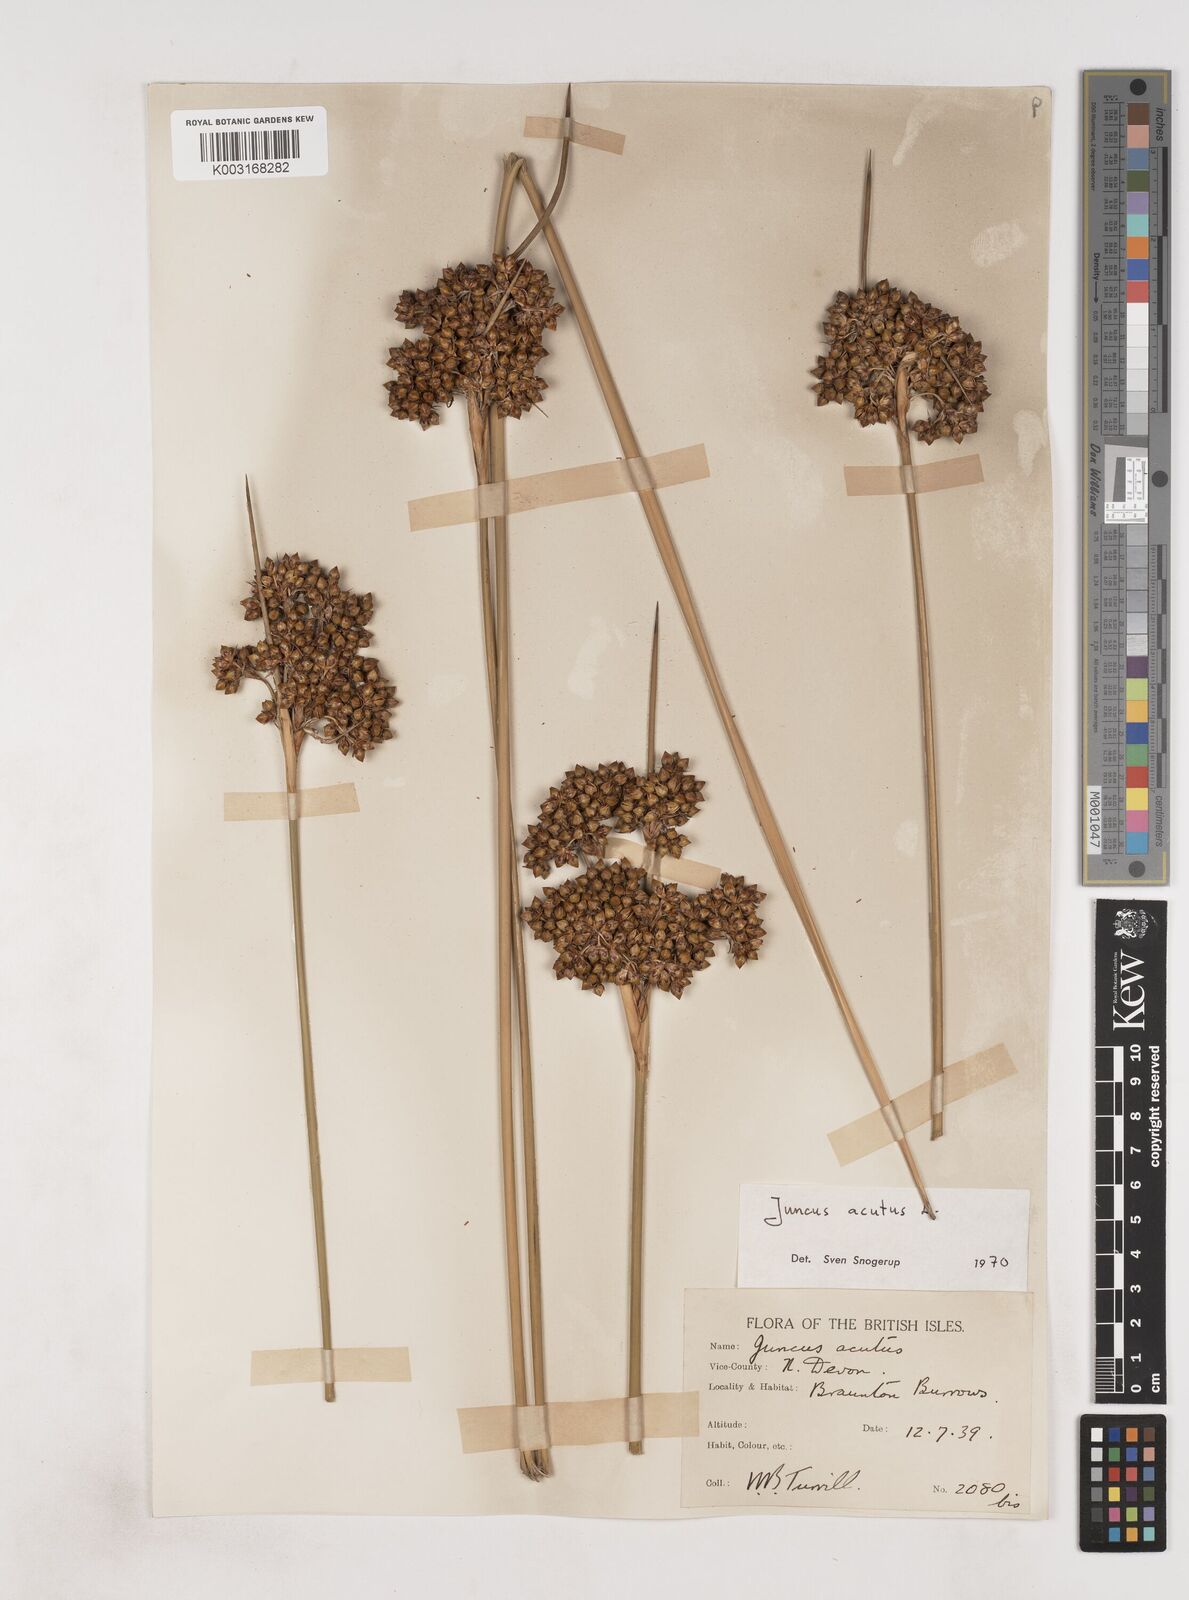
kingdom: Plantae
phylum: Tracheophyta
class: Liliopsida
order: Poales
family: Juncaceae
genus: Juncus
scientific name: Juncus acutus
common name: Sharp rush
